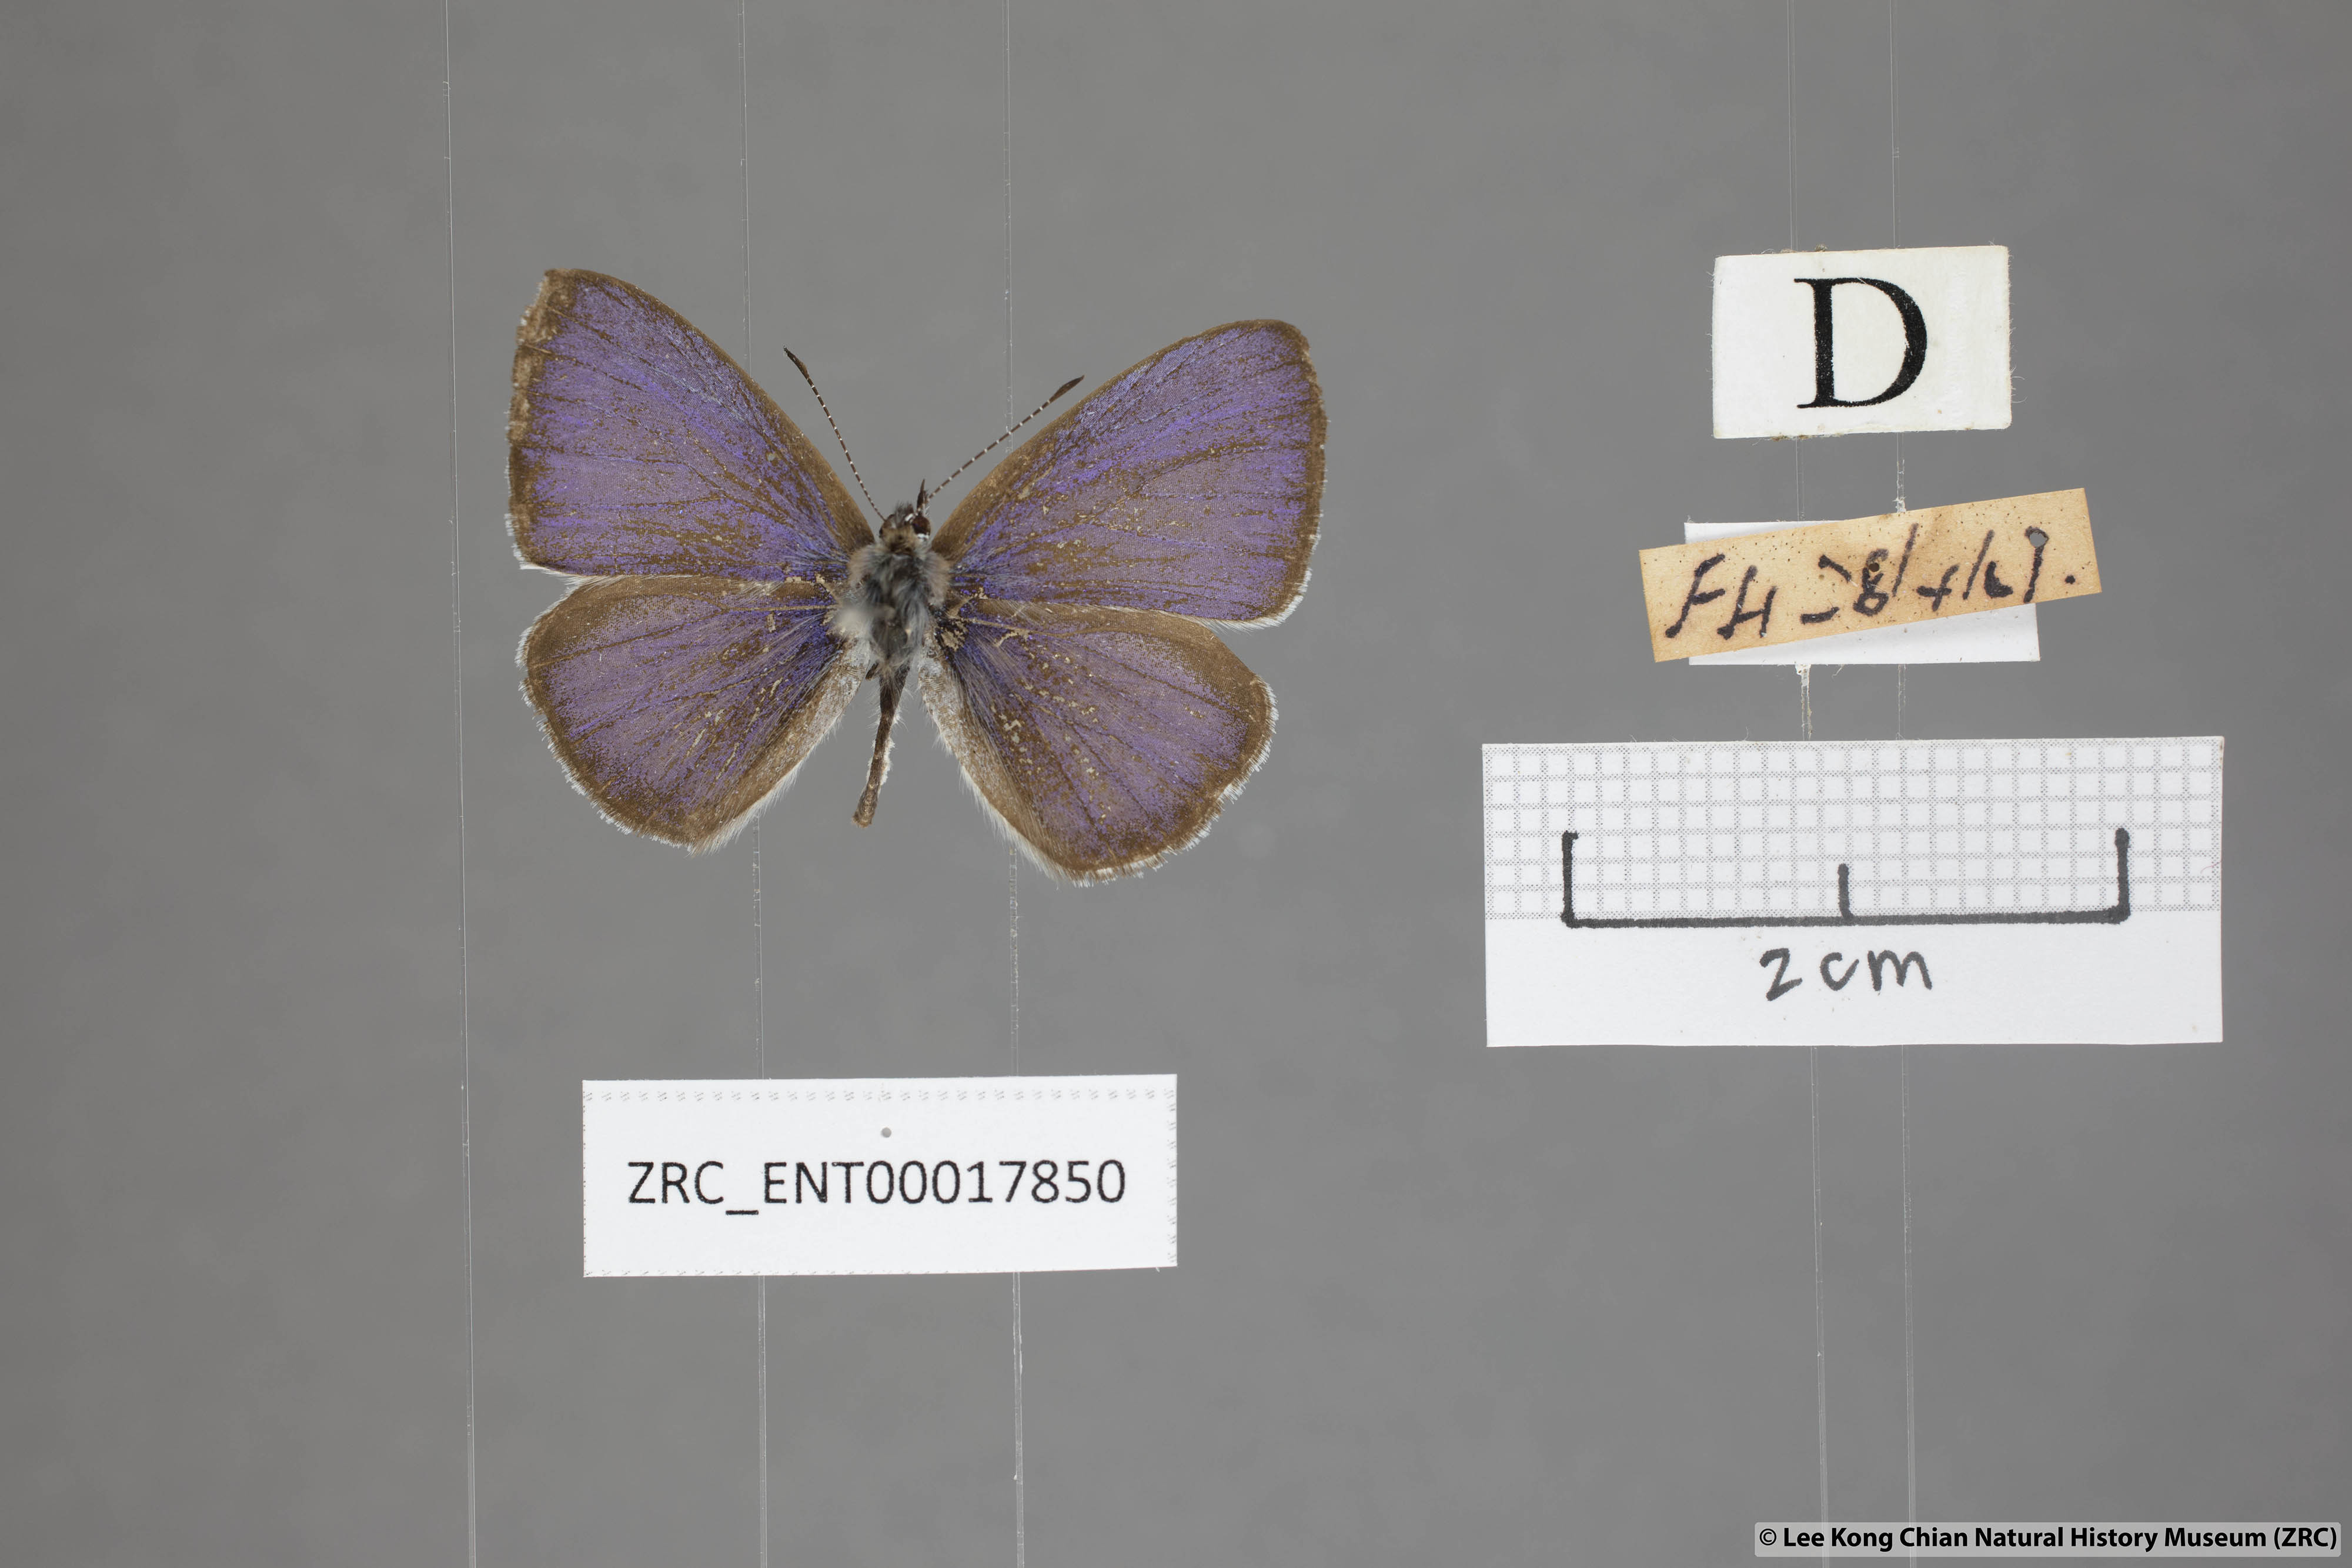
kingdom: Animalia
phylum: Arthropoda
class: Insecta
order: Lepidoptera
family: Lycaenidae
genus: Udara
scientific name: Udara
